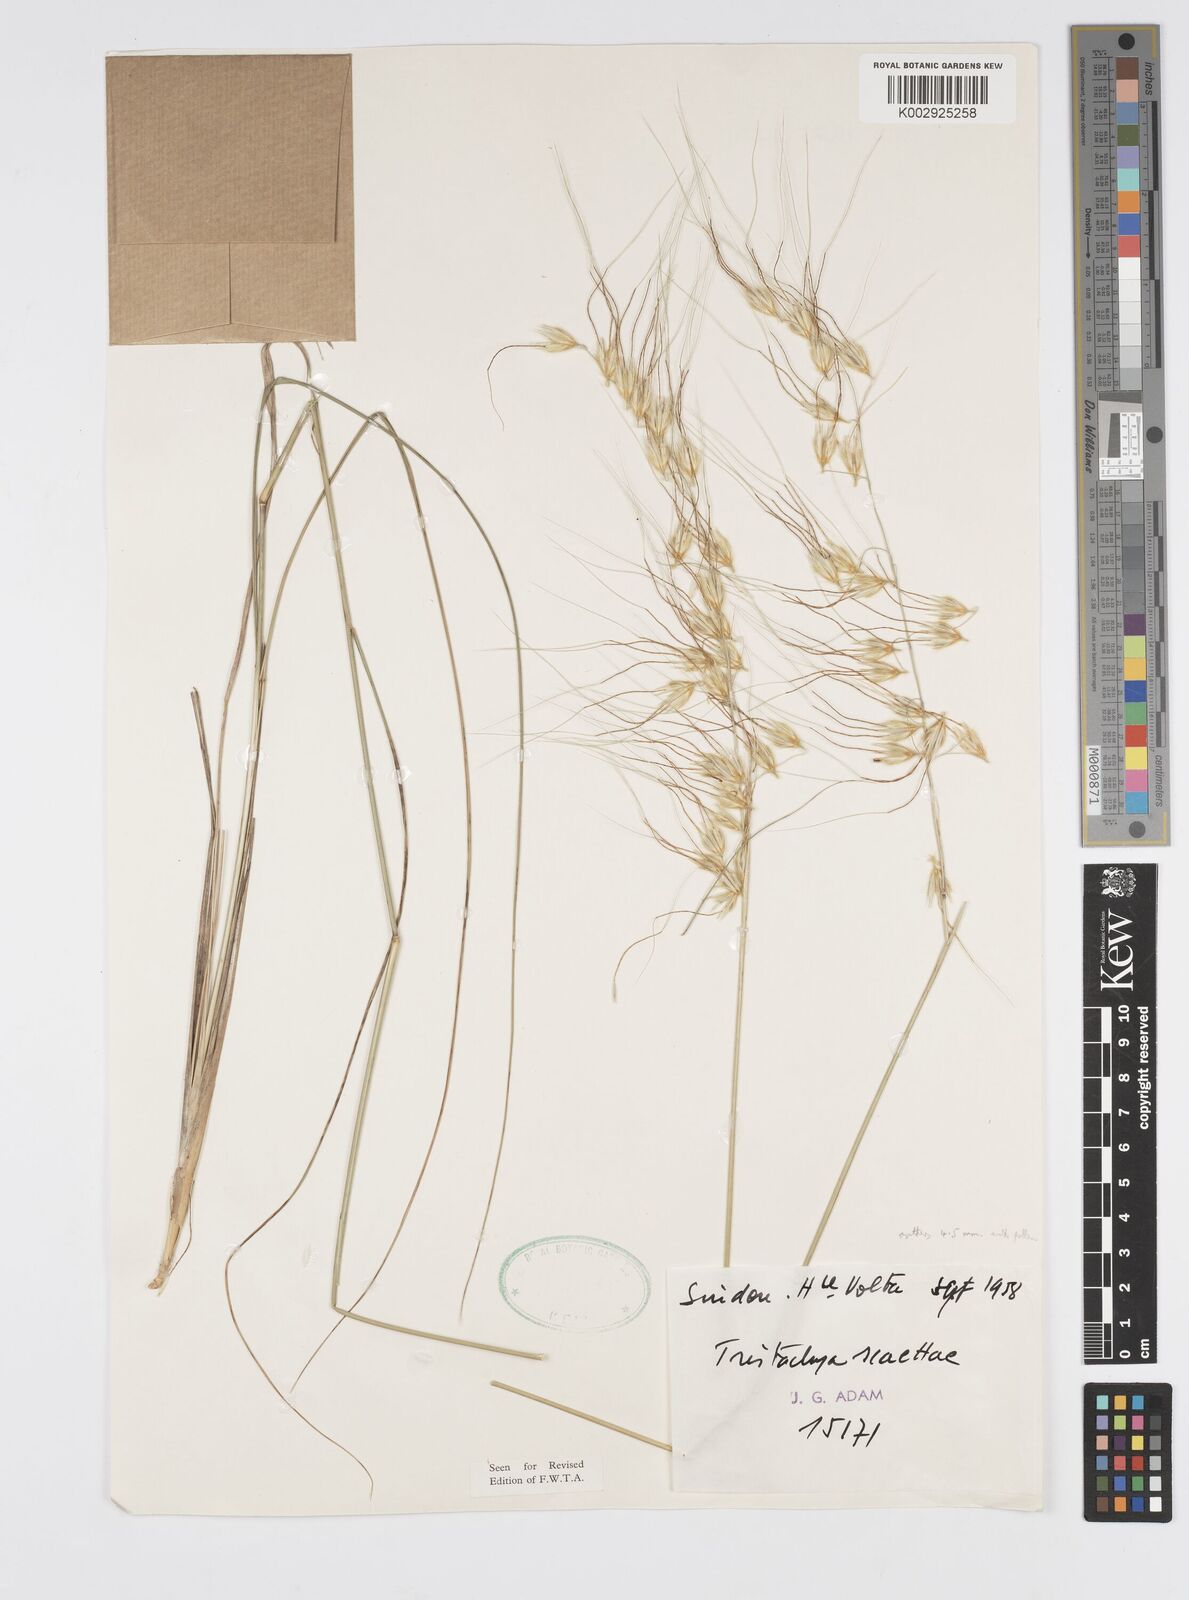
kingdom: Plantae
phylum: Tracheophyta
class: Liliopsida
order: Poales
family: Poaceae
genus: Loudetiopsis
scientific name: Loudetiopsis scaettae
